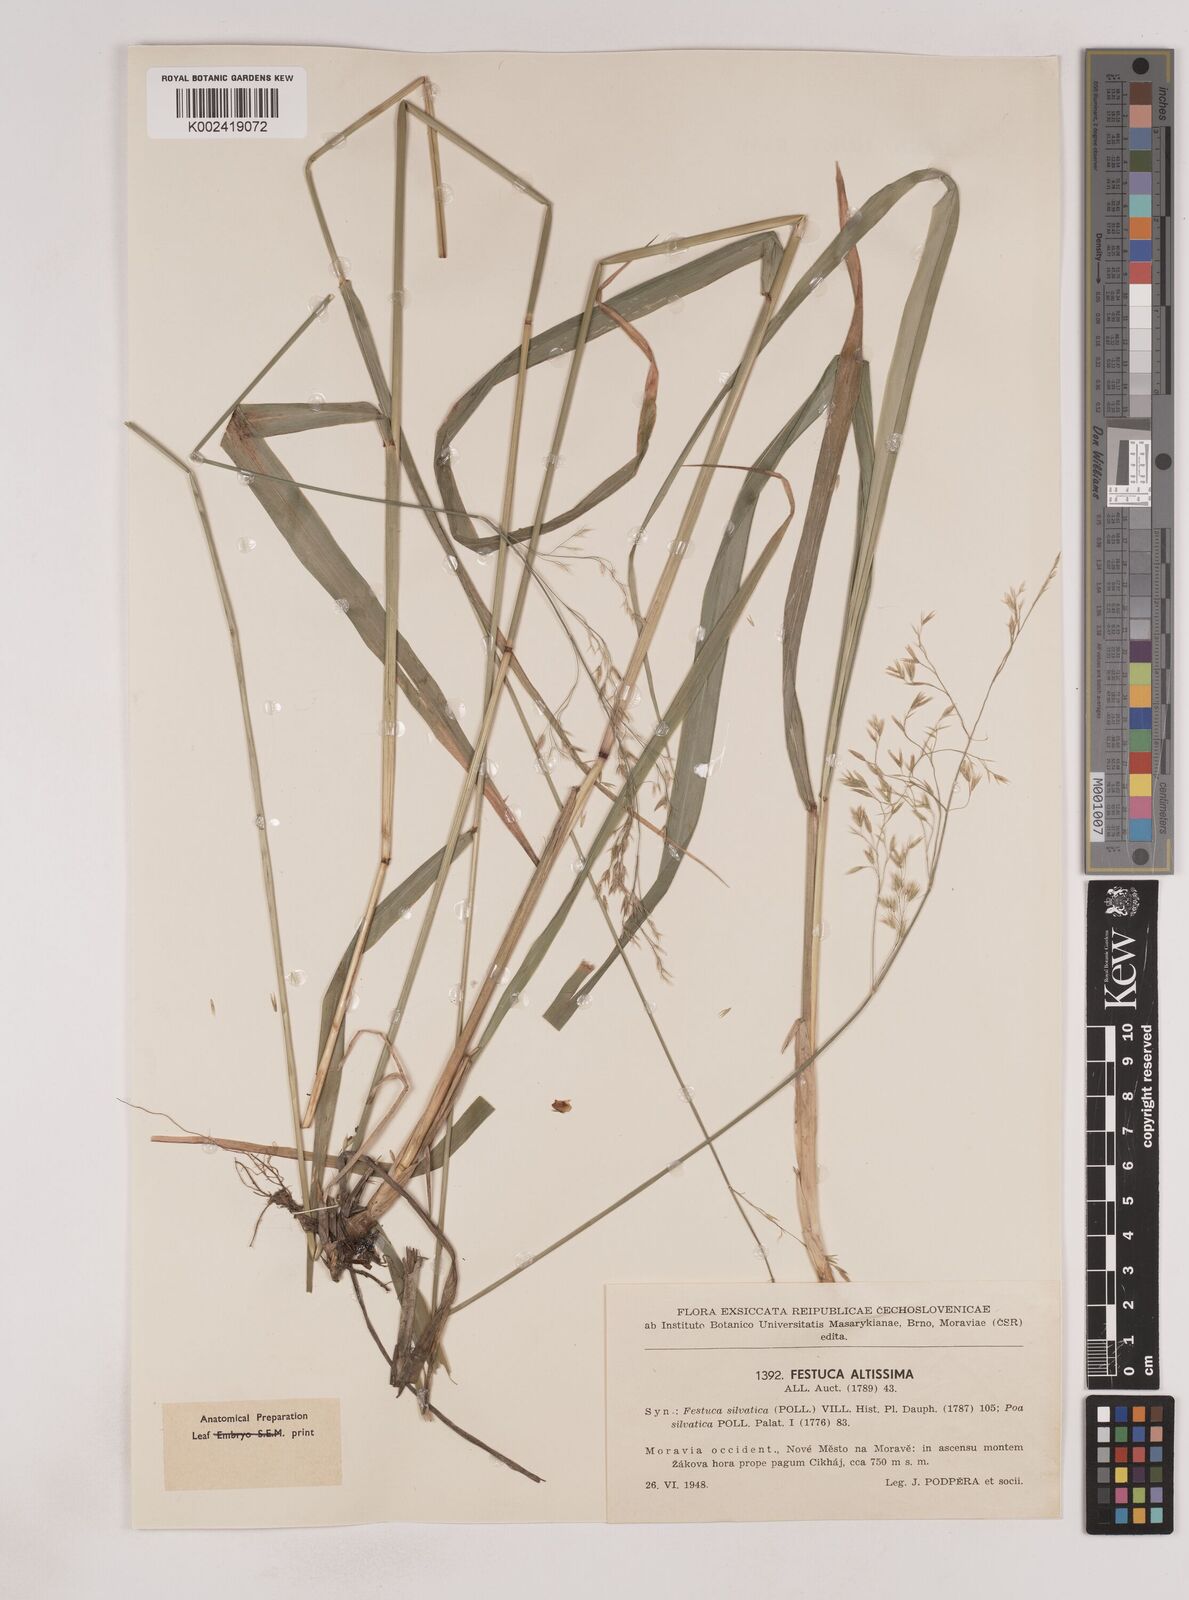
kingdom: Plantae
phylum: Tracheophyta
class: Liliopsida
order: Poales
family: Poaceae
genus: Festuca
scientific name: Festuca drymeja
